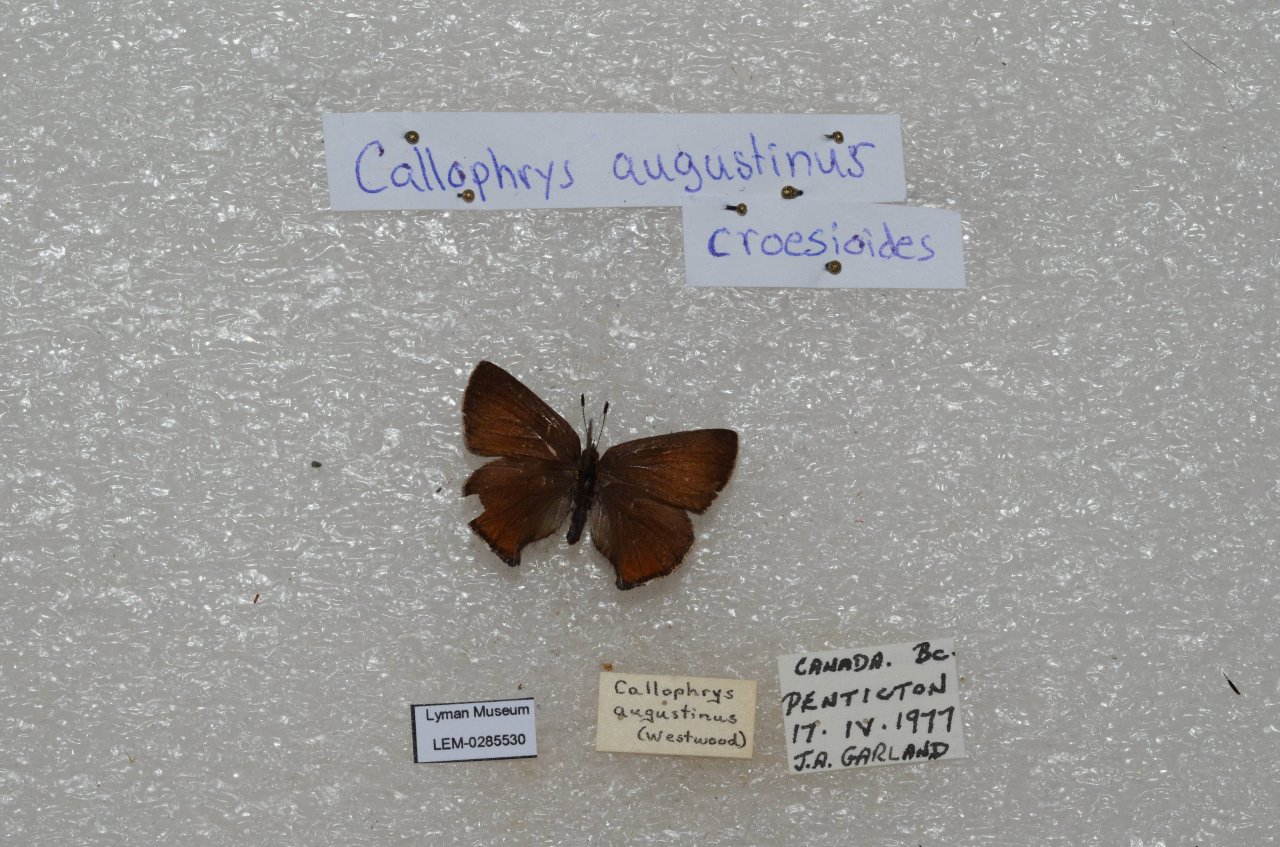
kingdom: Animalia
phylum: Arthropoda
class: Insecta
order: Lepidoptera
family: Lycaenidae
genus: Incisalia
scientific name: Incisalia irioides
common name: Brown Elfin
